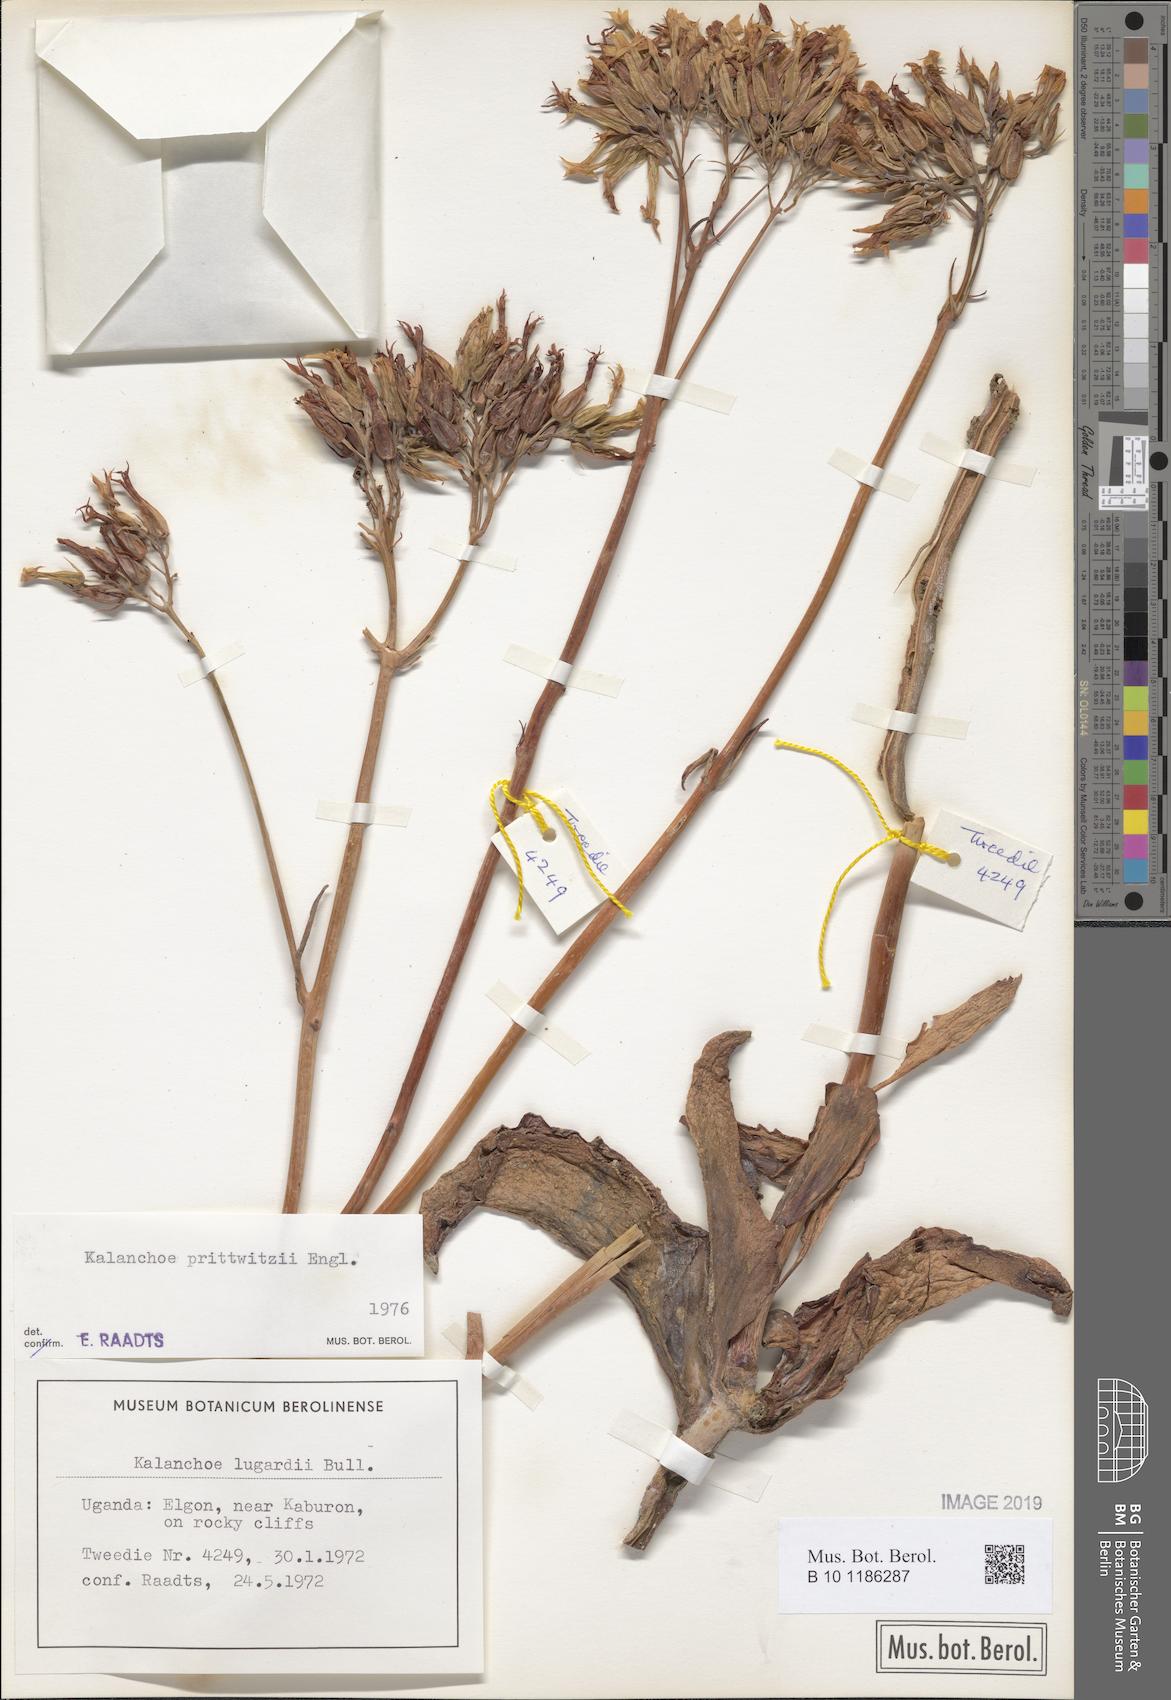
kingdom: Plantae
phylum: Tracheophyta
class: Magnoliopsida
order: Saxifragales
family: Crassulaceae
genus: Kalanchoe
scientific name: Kalanchoe prittwitzii
